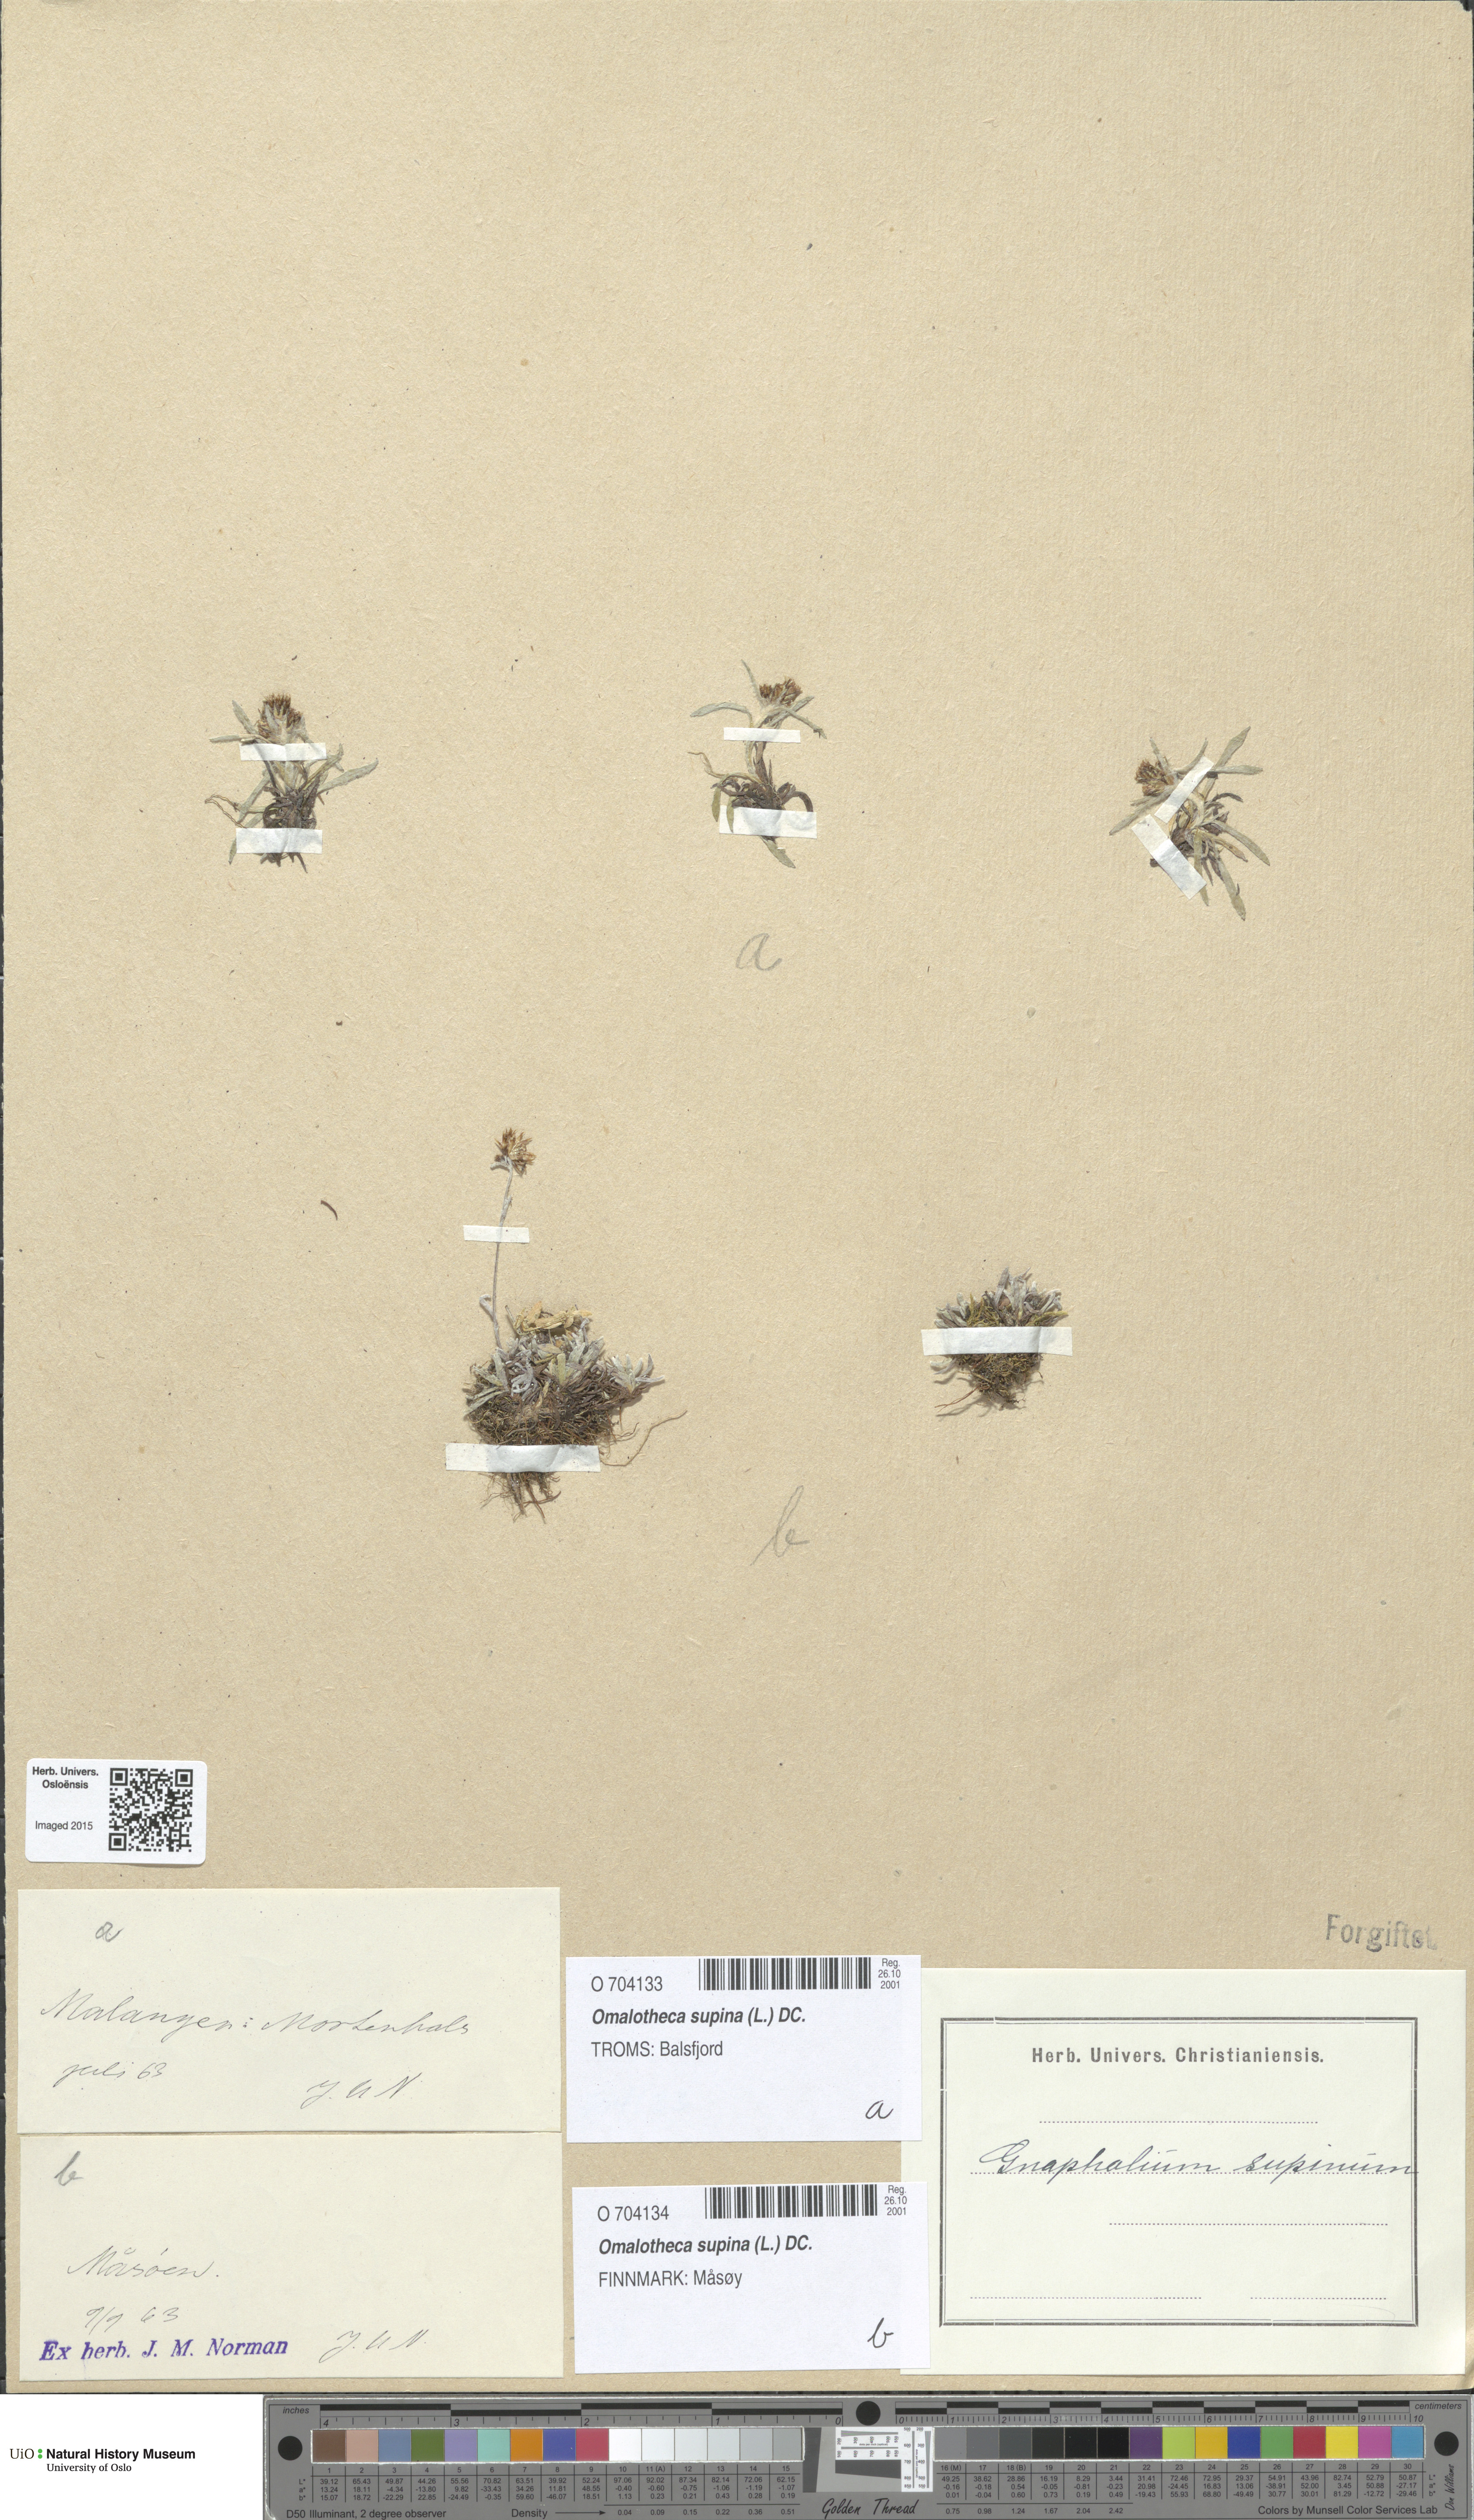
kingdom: Plantae
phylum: Tracheophyta
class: Magnoliopsida
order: Asterales
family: Asteraceae
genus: Omalotheca
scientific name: Omalotheca supina
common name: Alpine arctic-cudweed
